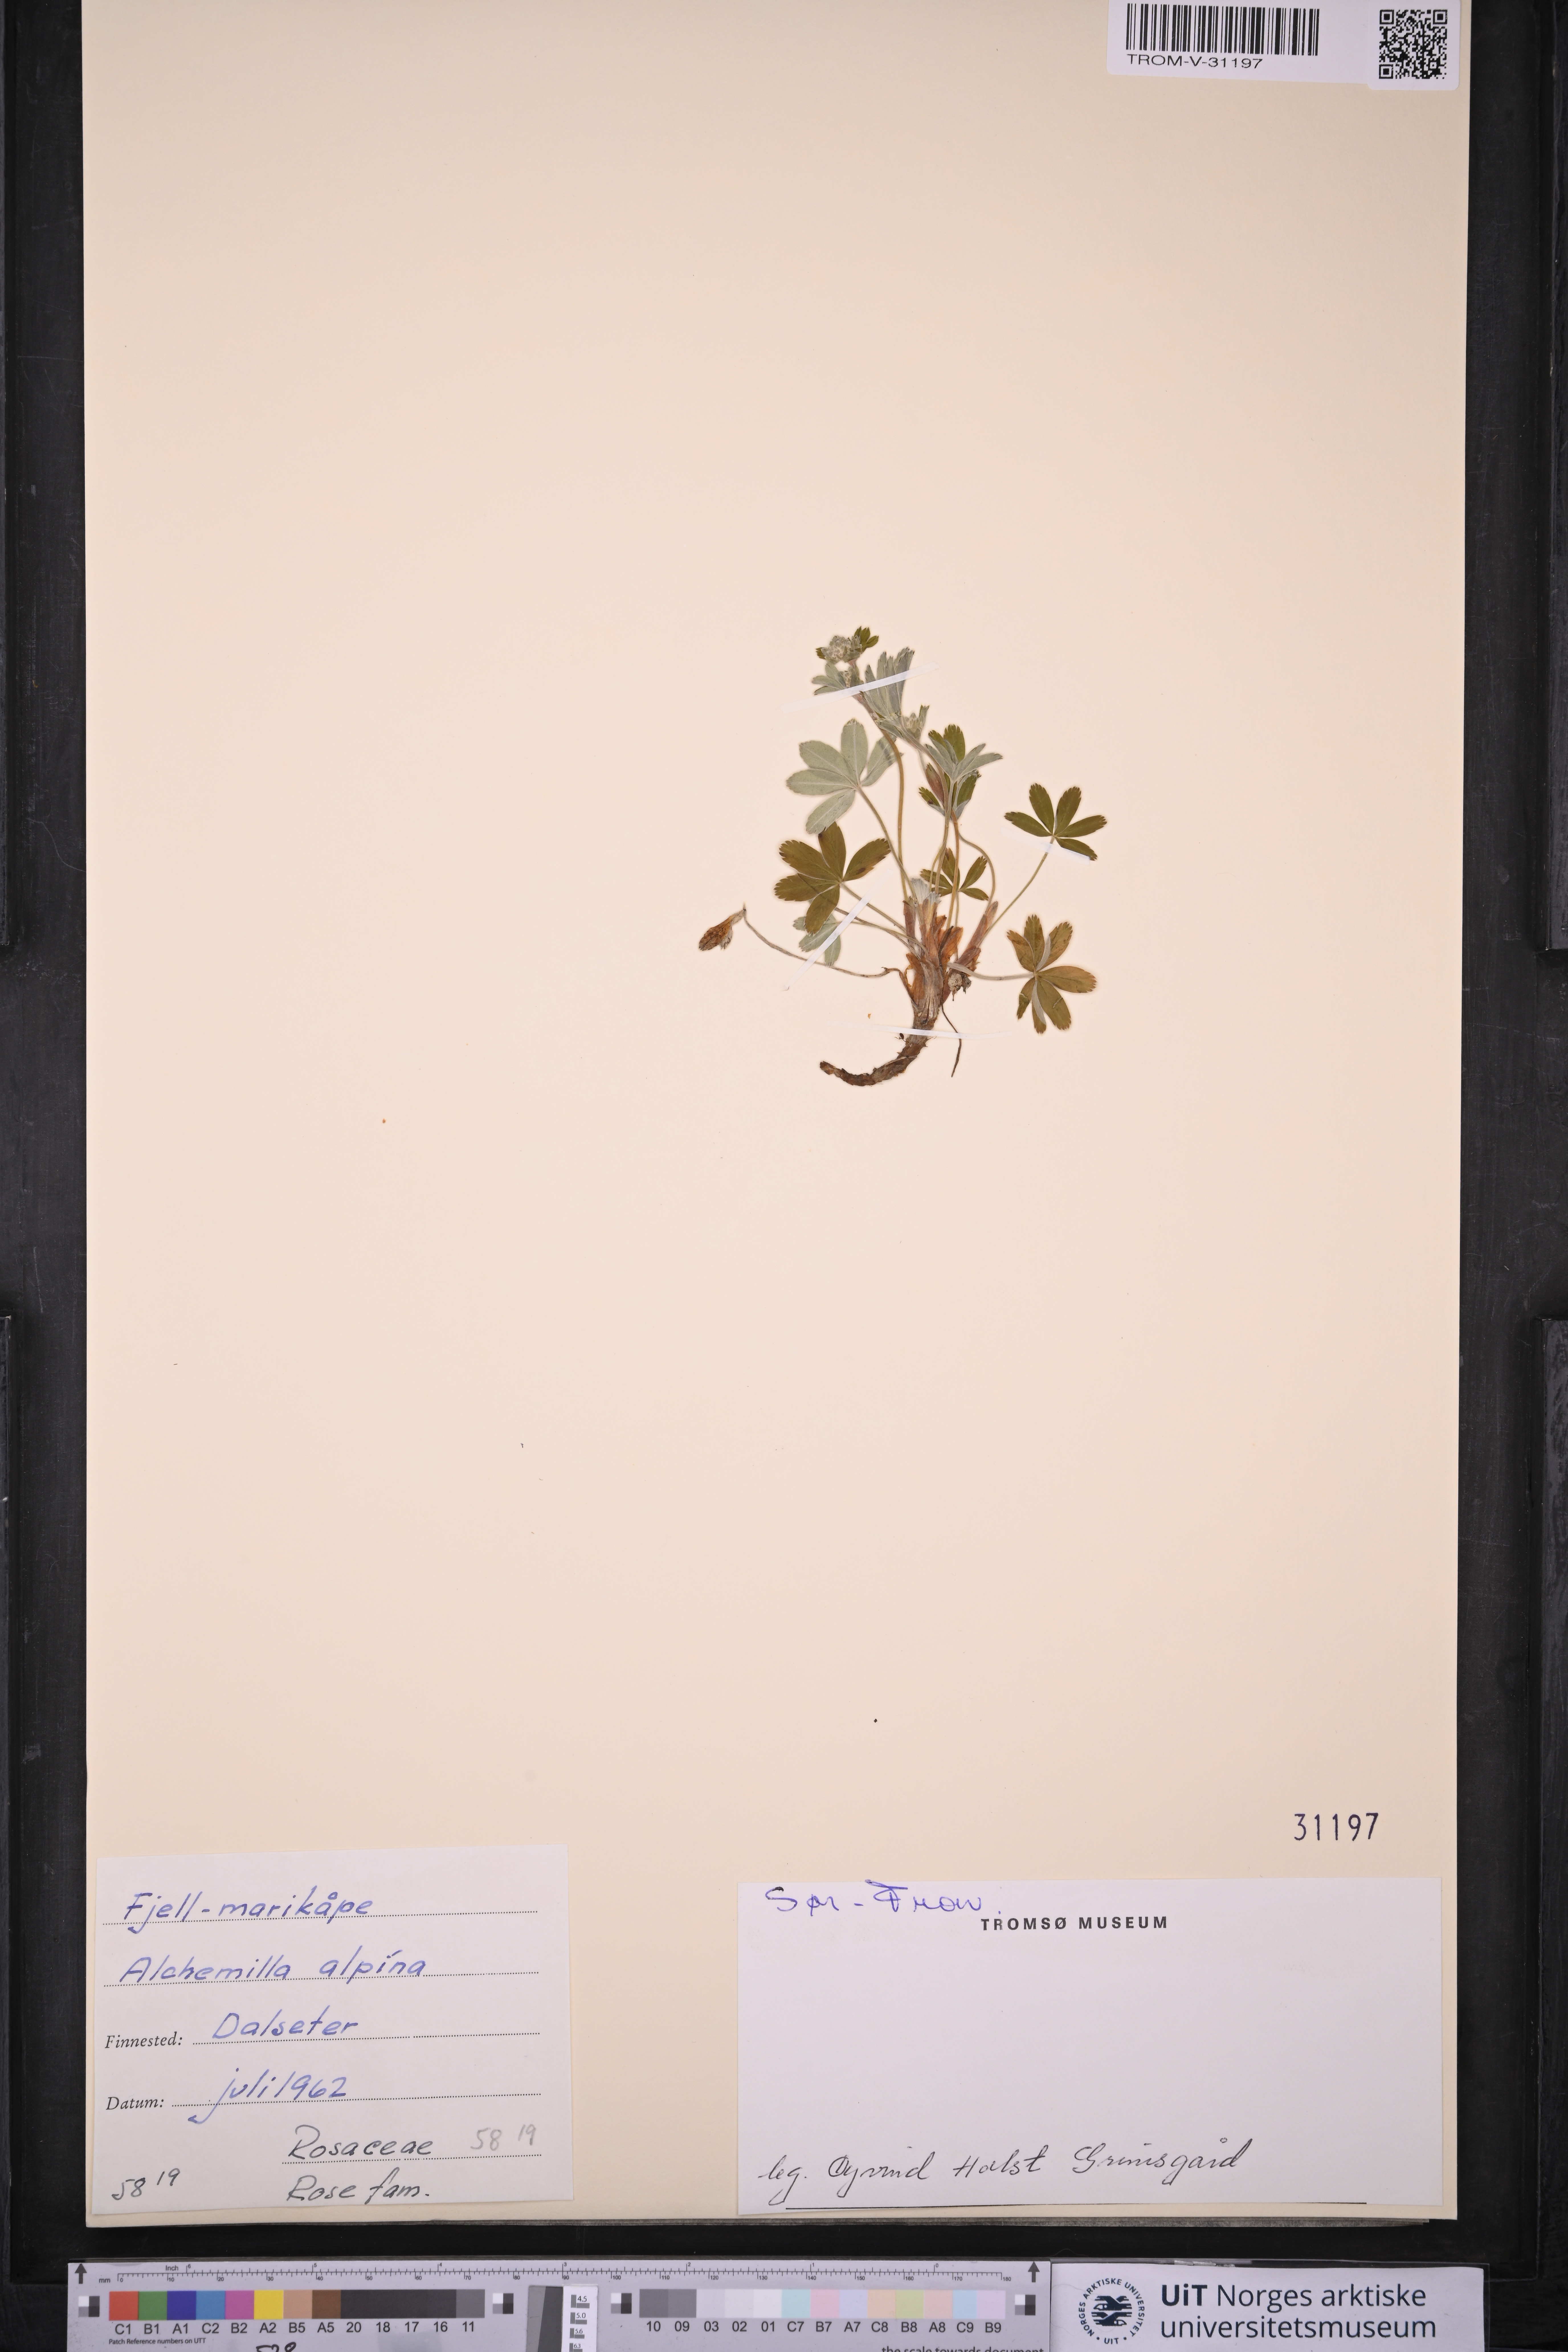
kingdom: Plantae
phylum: Tracheophyta
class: Magnoliopsida
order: Rosales
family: Rosaceae
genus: Alchemilla
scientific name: Alchemilla alpina
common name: Alpine lady's-mantle
